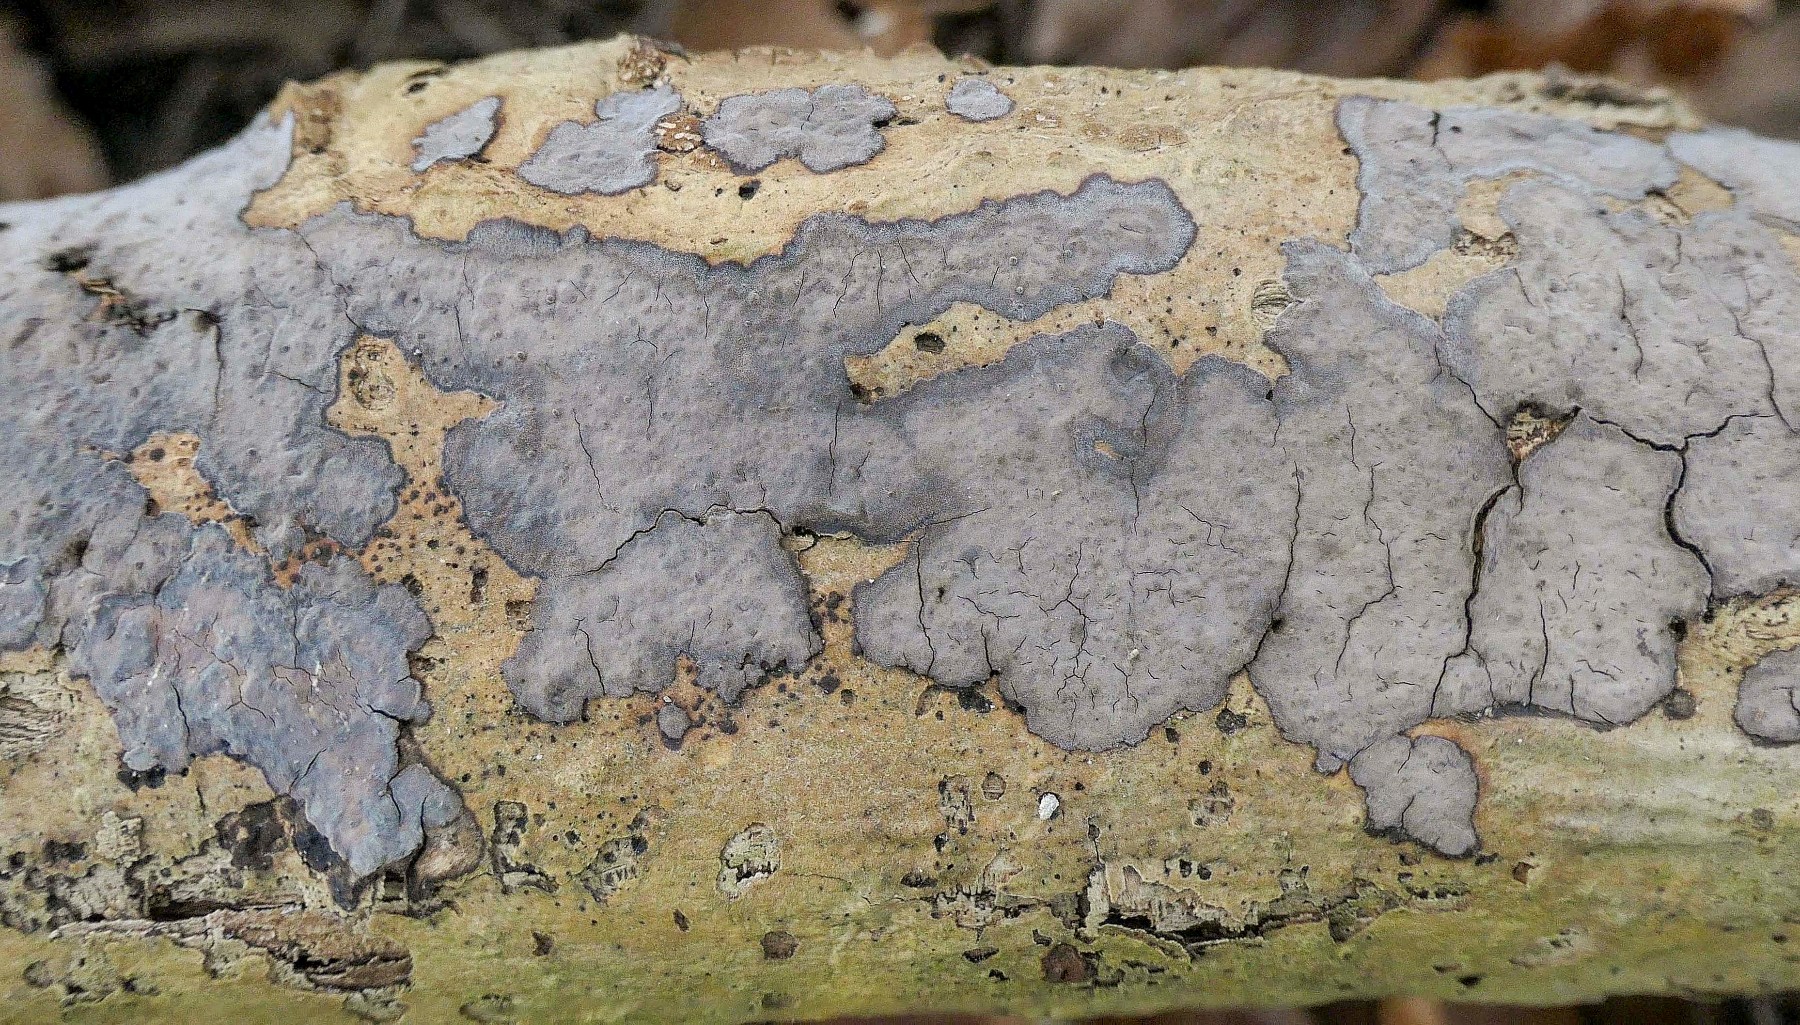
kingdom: Fungi
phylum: Basidiomycota
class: Agaricomycetes
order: Russulales
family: Peniophoraceae
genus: Peniophora
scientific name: Peniophora limitata
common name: mørkrandet voksskind
